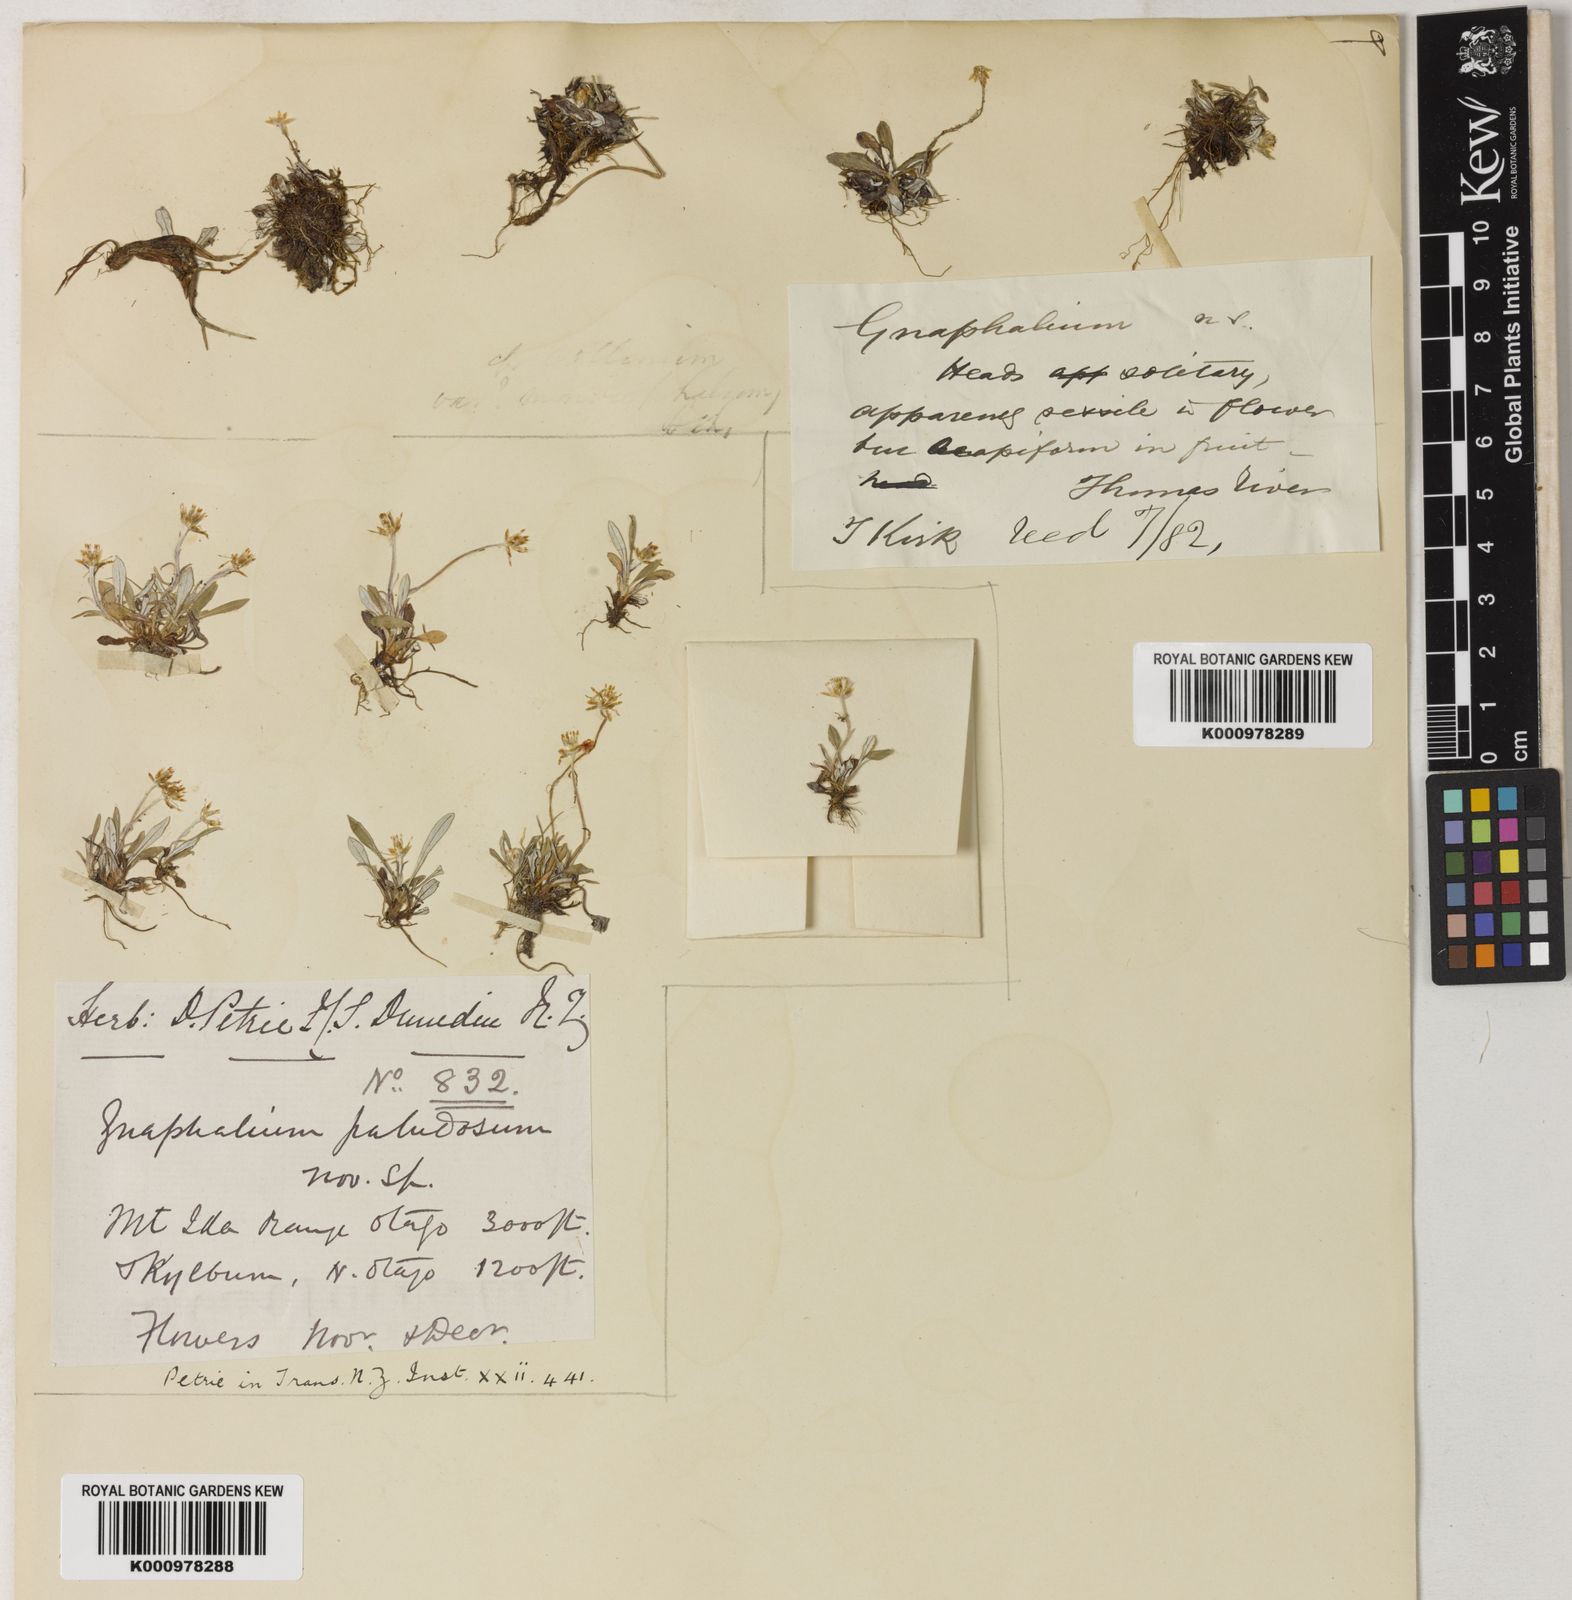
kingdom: Plantae
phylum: Tracheophyta
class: Magnoliopsida
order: Asterales
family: Asteraceae
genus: Euchiton
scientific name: Euchiton paludosus
